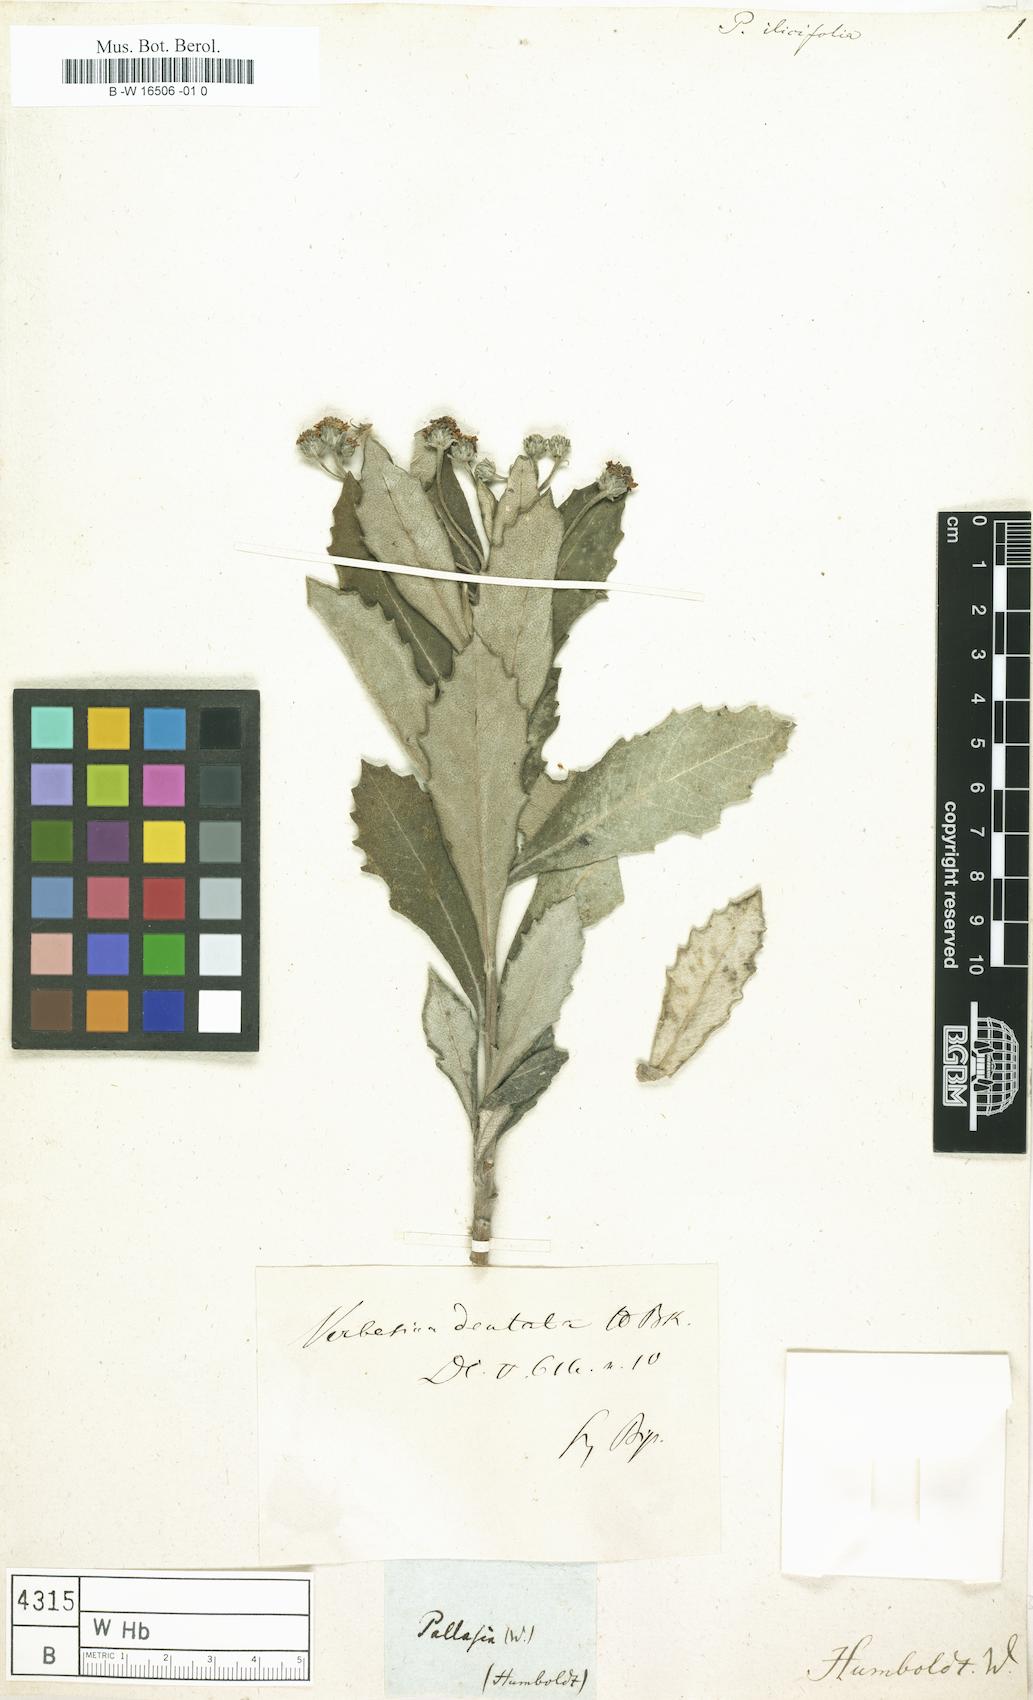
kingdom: Plantae
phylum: Tracheophyta
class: Magnoliopsida
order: Sapindales
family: Rutaceae
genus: Pallasia
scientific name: Pallasia
